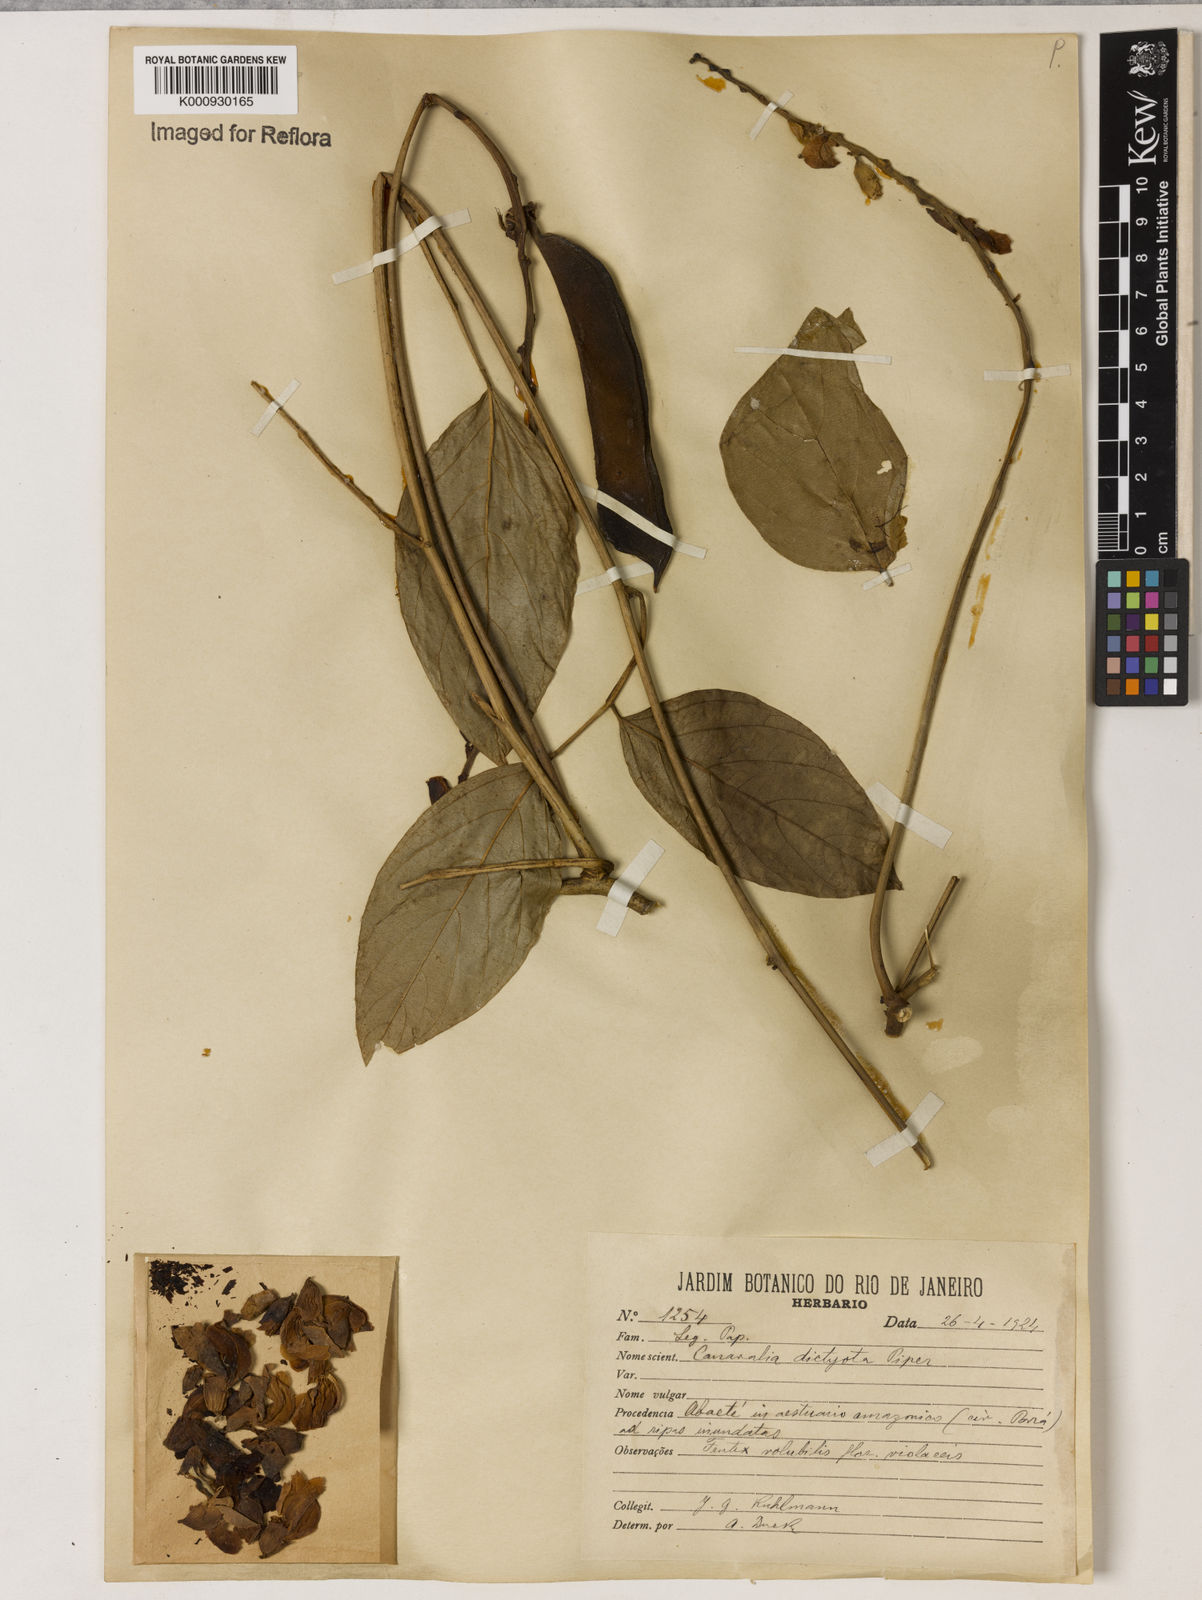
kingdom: Plantae
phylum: Tracheophyta
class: Magnoliopsida
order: Fabales
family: Fabaceae
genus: Canavalia
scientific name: Canavalia brasiliensis
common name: Barbicou-bean
